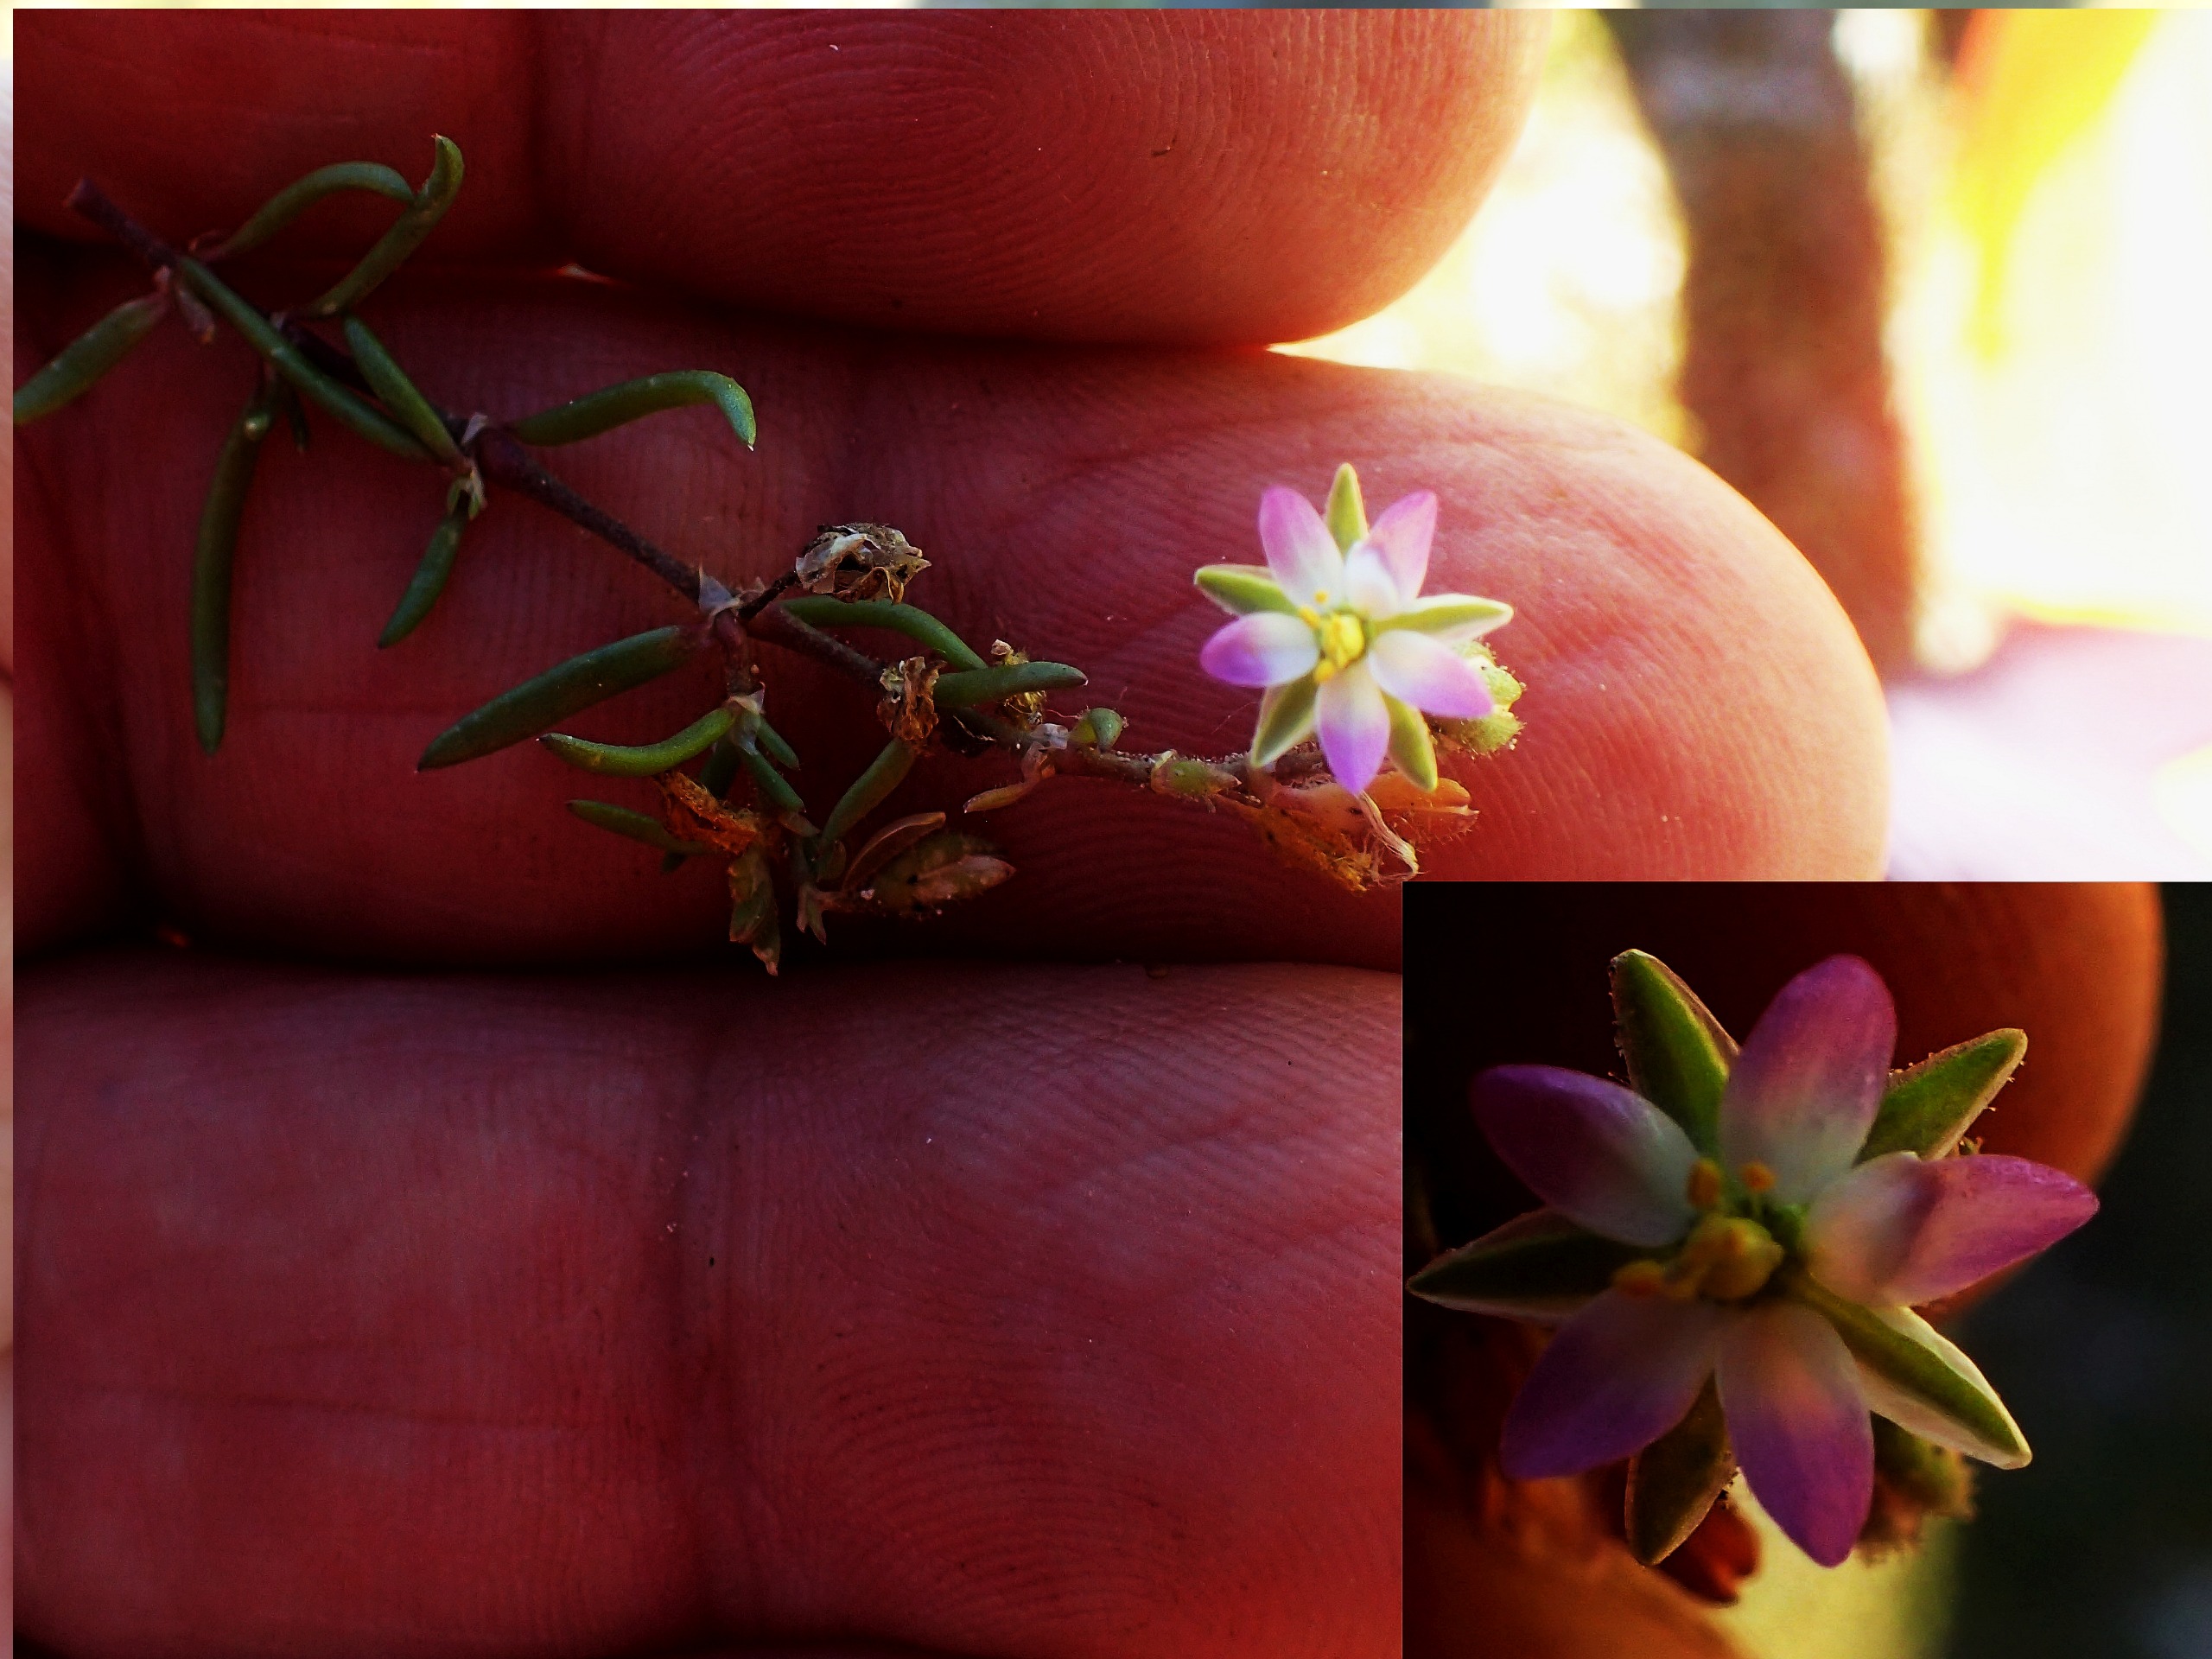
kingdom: Plantae
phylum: Tracheophyta
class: Magnoliopsida
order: Caryophyllales
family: Caryophyllaceae
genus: Spergularia
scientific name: Spergularia marina
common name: Kødet hindeknæ
